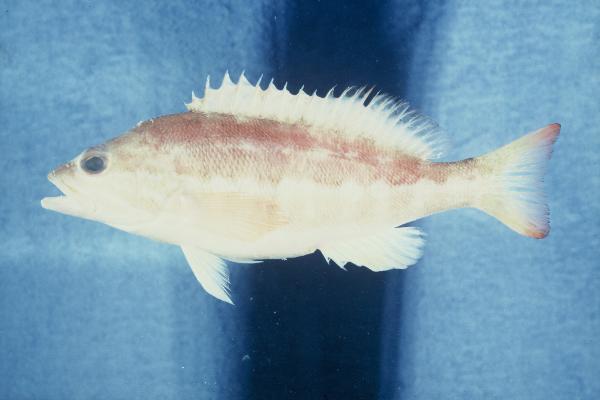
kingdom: Animalia
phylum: Chordata
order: Perciformes
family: Serranidae
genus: Serranus
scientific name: Serranus cabrilla
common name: Comber
